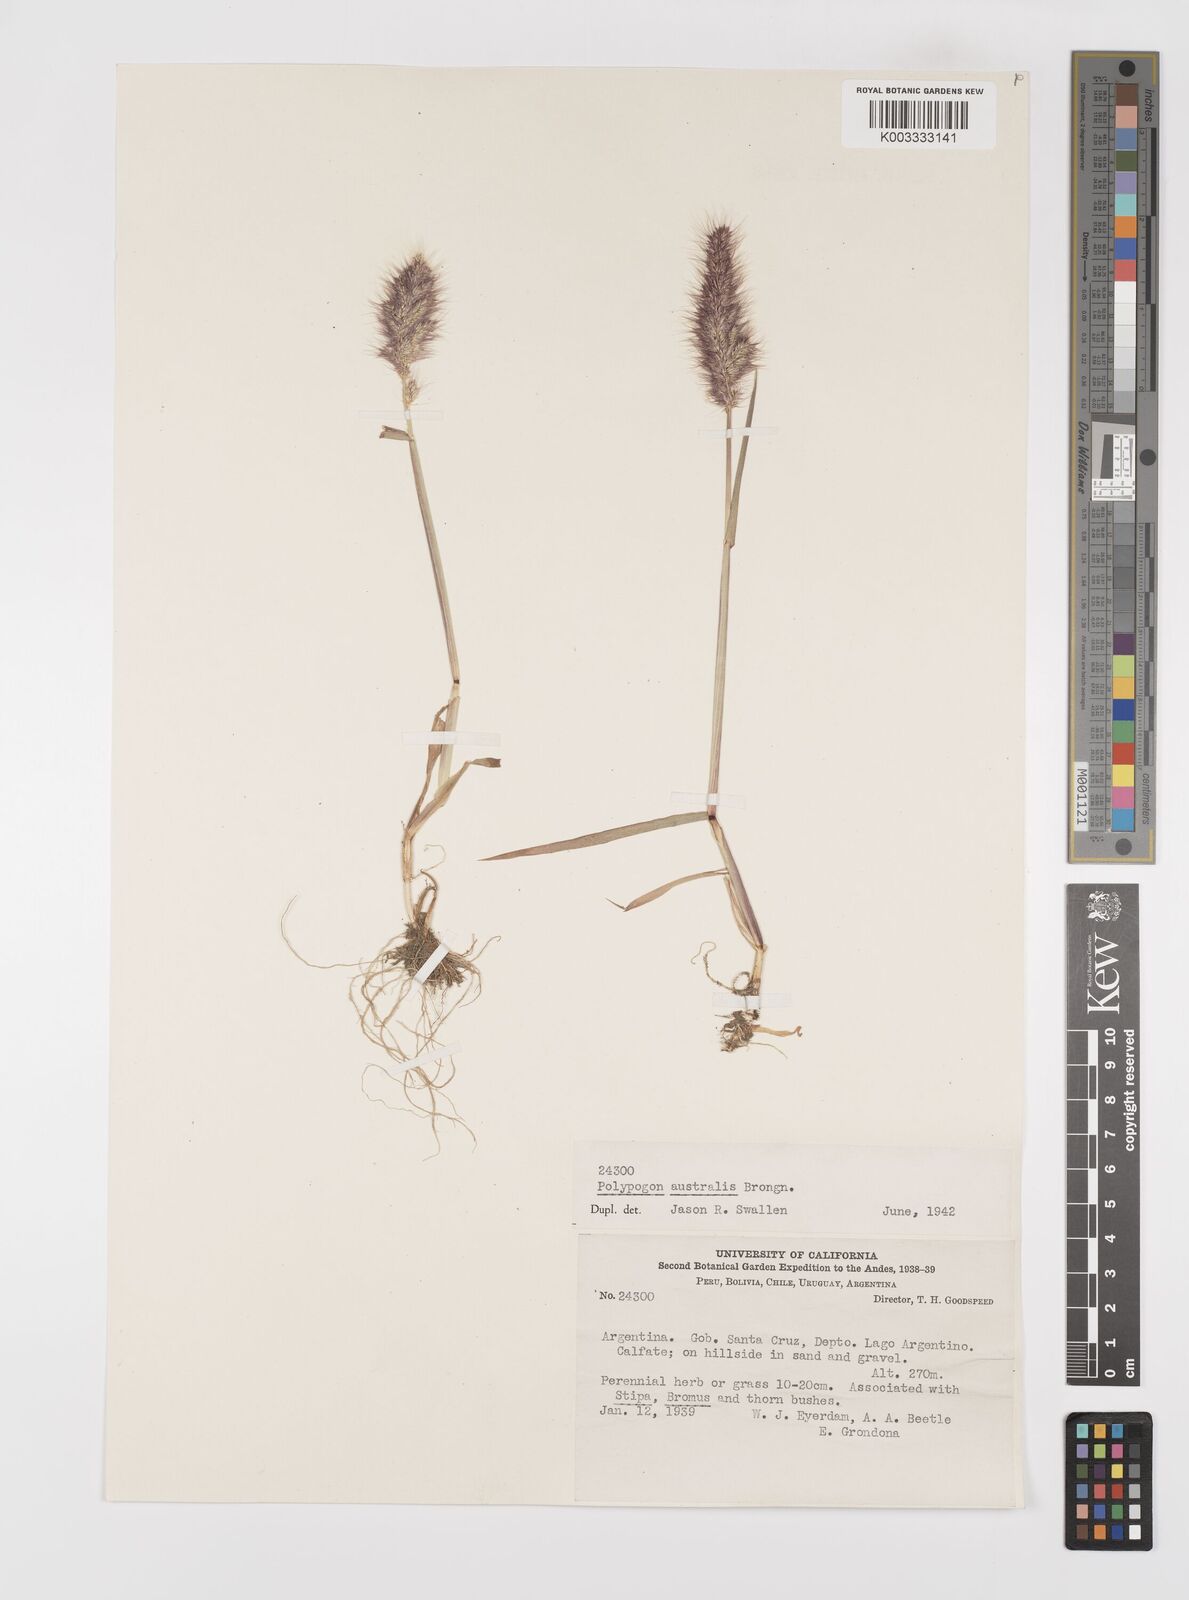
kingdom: Plantae
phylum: Tracheophyta
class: Liliopsida
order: Poales
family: Poaceae
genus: Polypogon
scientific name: Polypogon australis
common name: Chilean rabbitsfoot grass
